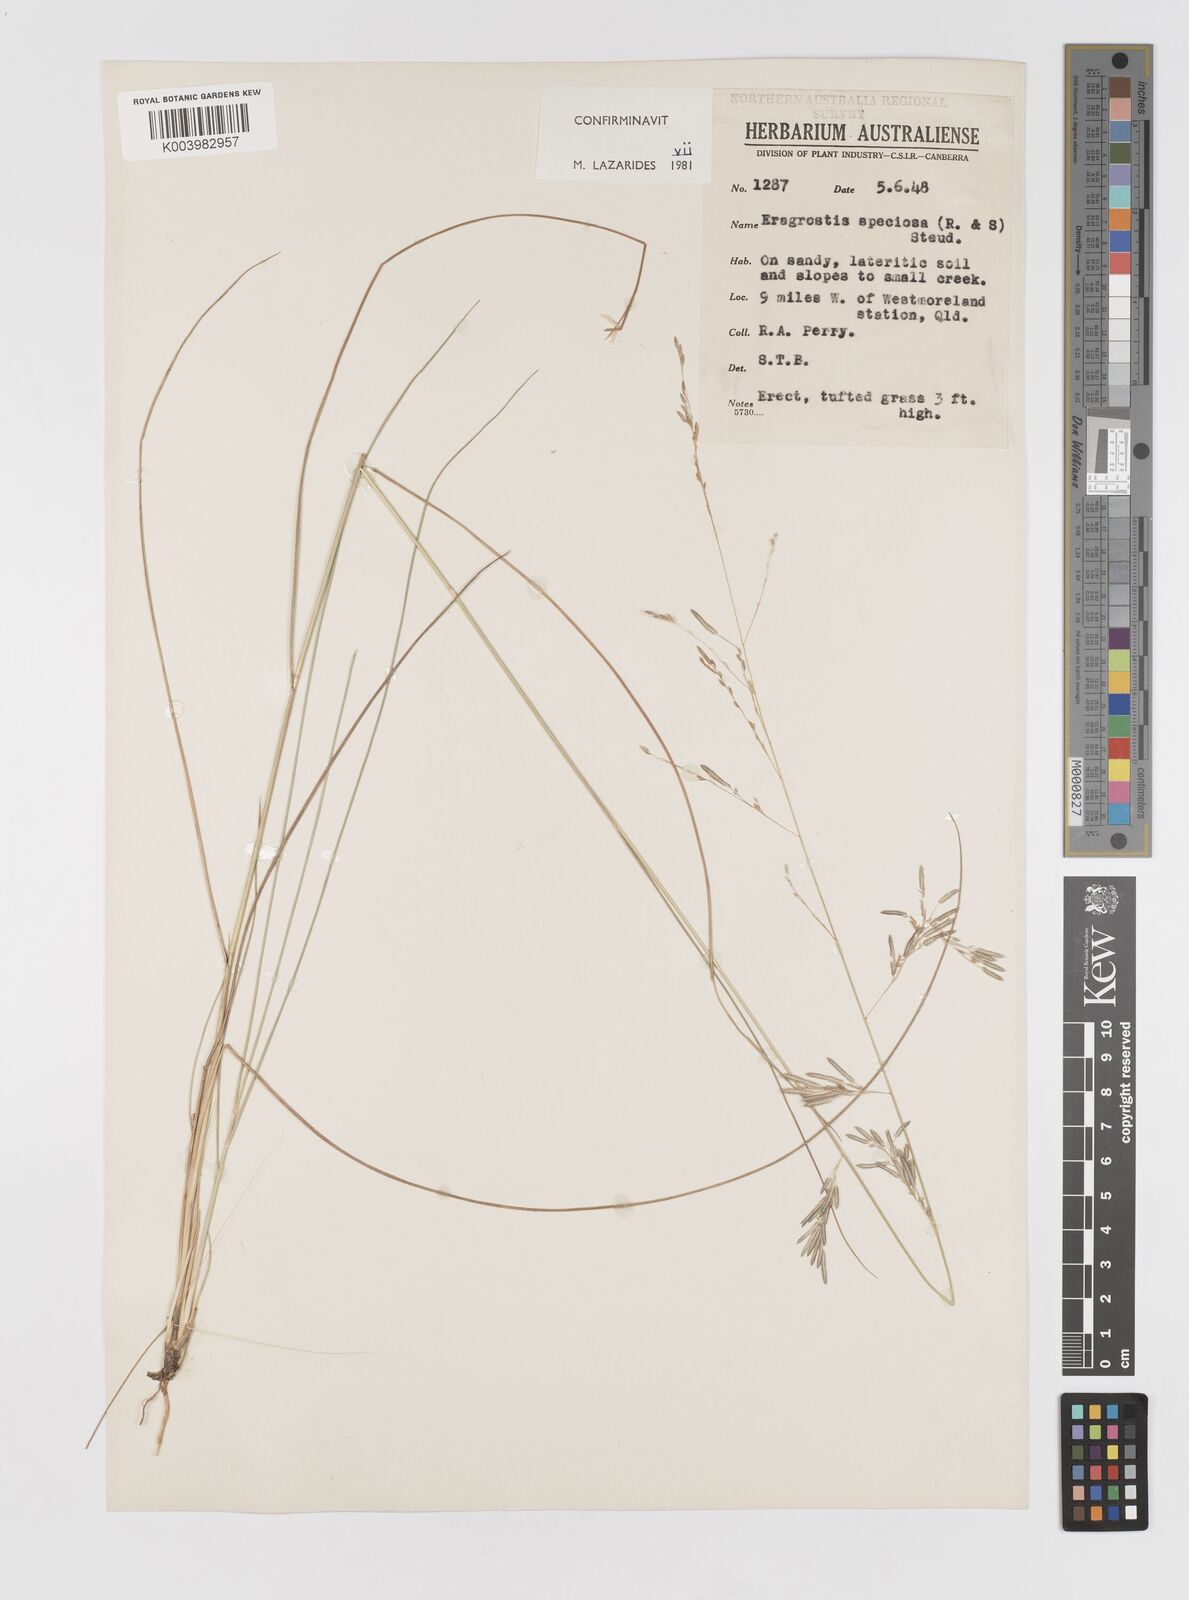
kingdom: Plantae
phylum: Tracheophyta
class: Liliopsida
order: Poales
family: Poaceae
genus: Eragrostis
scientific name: Eragrostis speciosa
